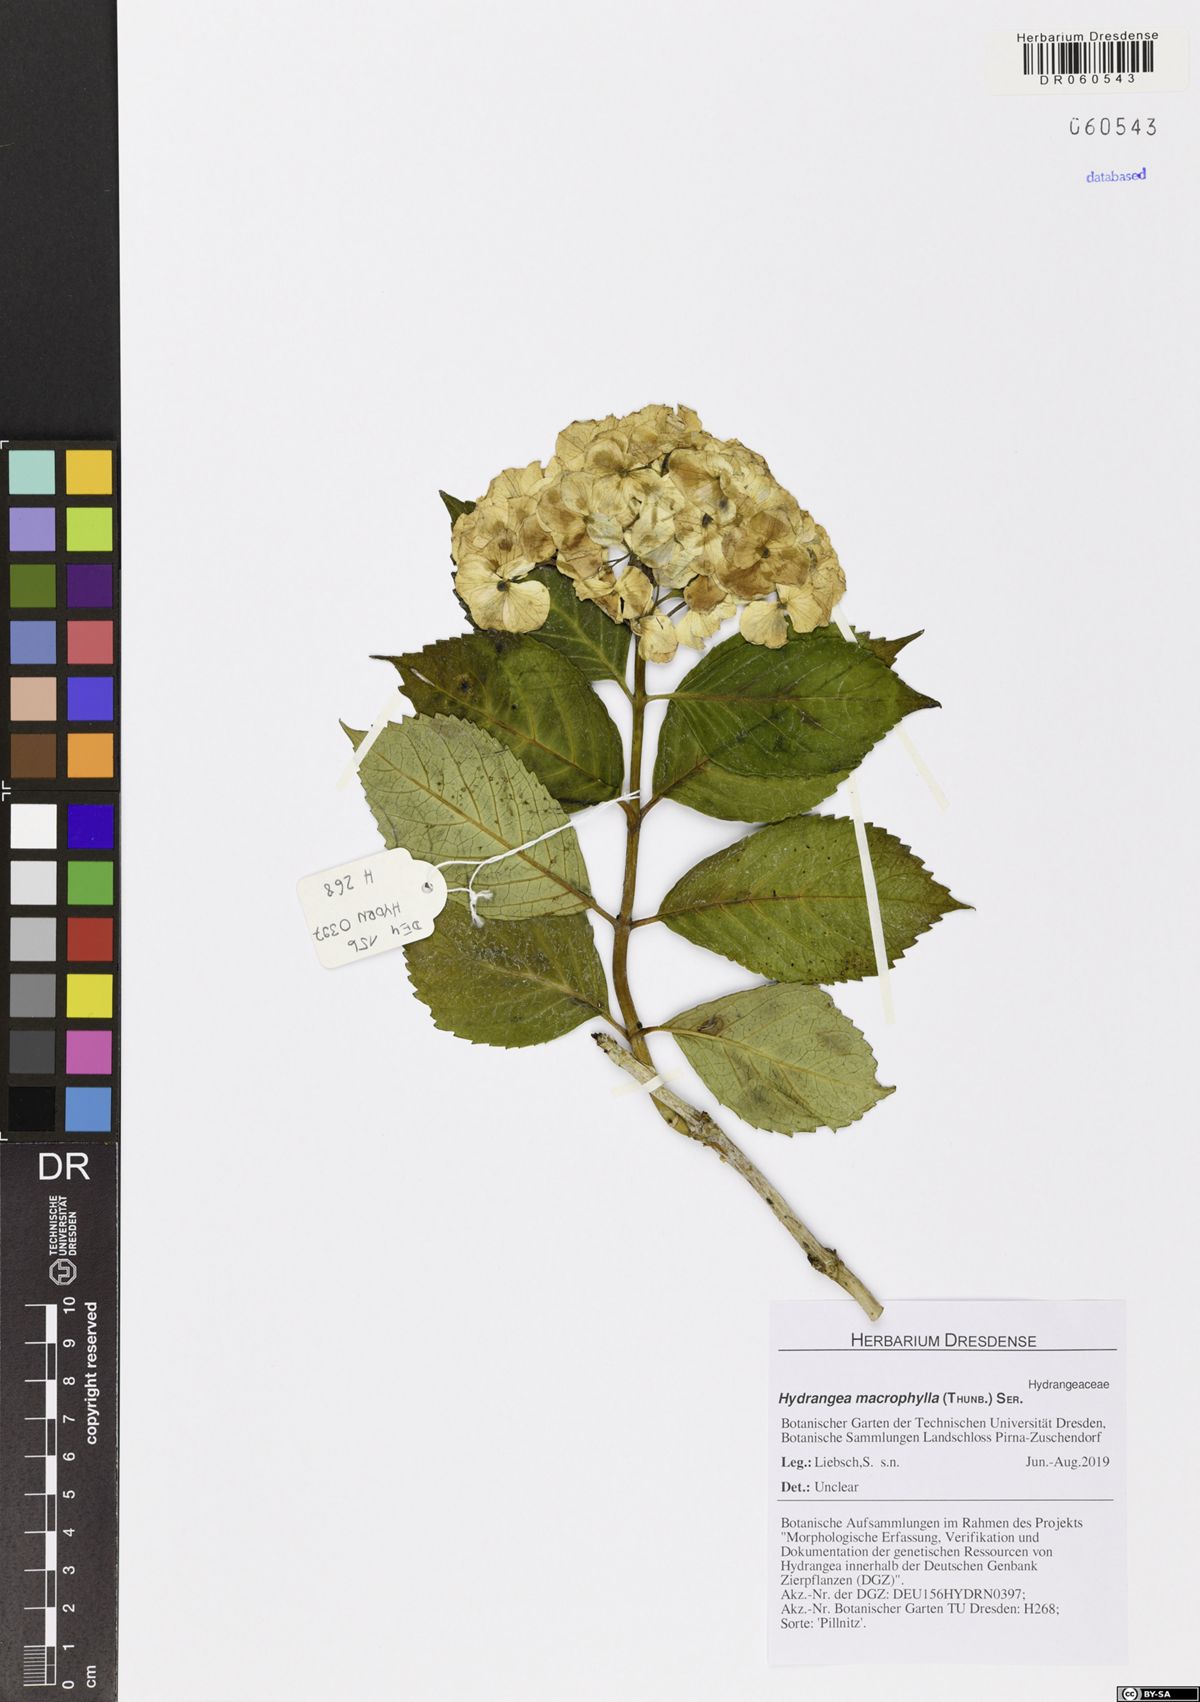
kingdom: Plantae
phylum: Tracheophyta
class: Magnoliopsida
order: Cornales
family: Hydrangeaceae
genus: Hydrangea
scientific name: Hydrangea macrophylla
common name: Hydrangea
